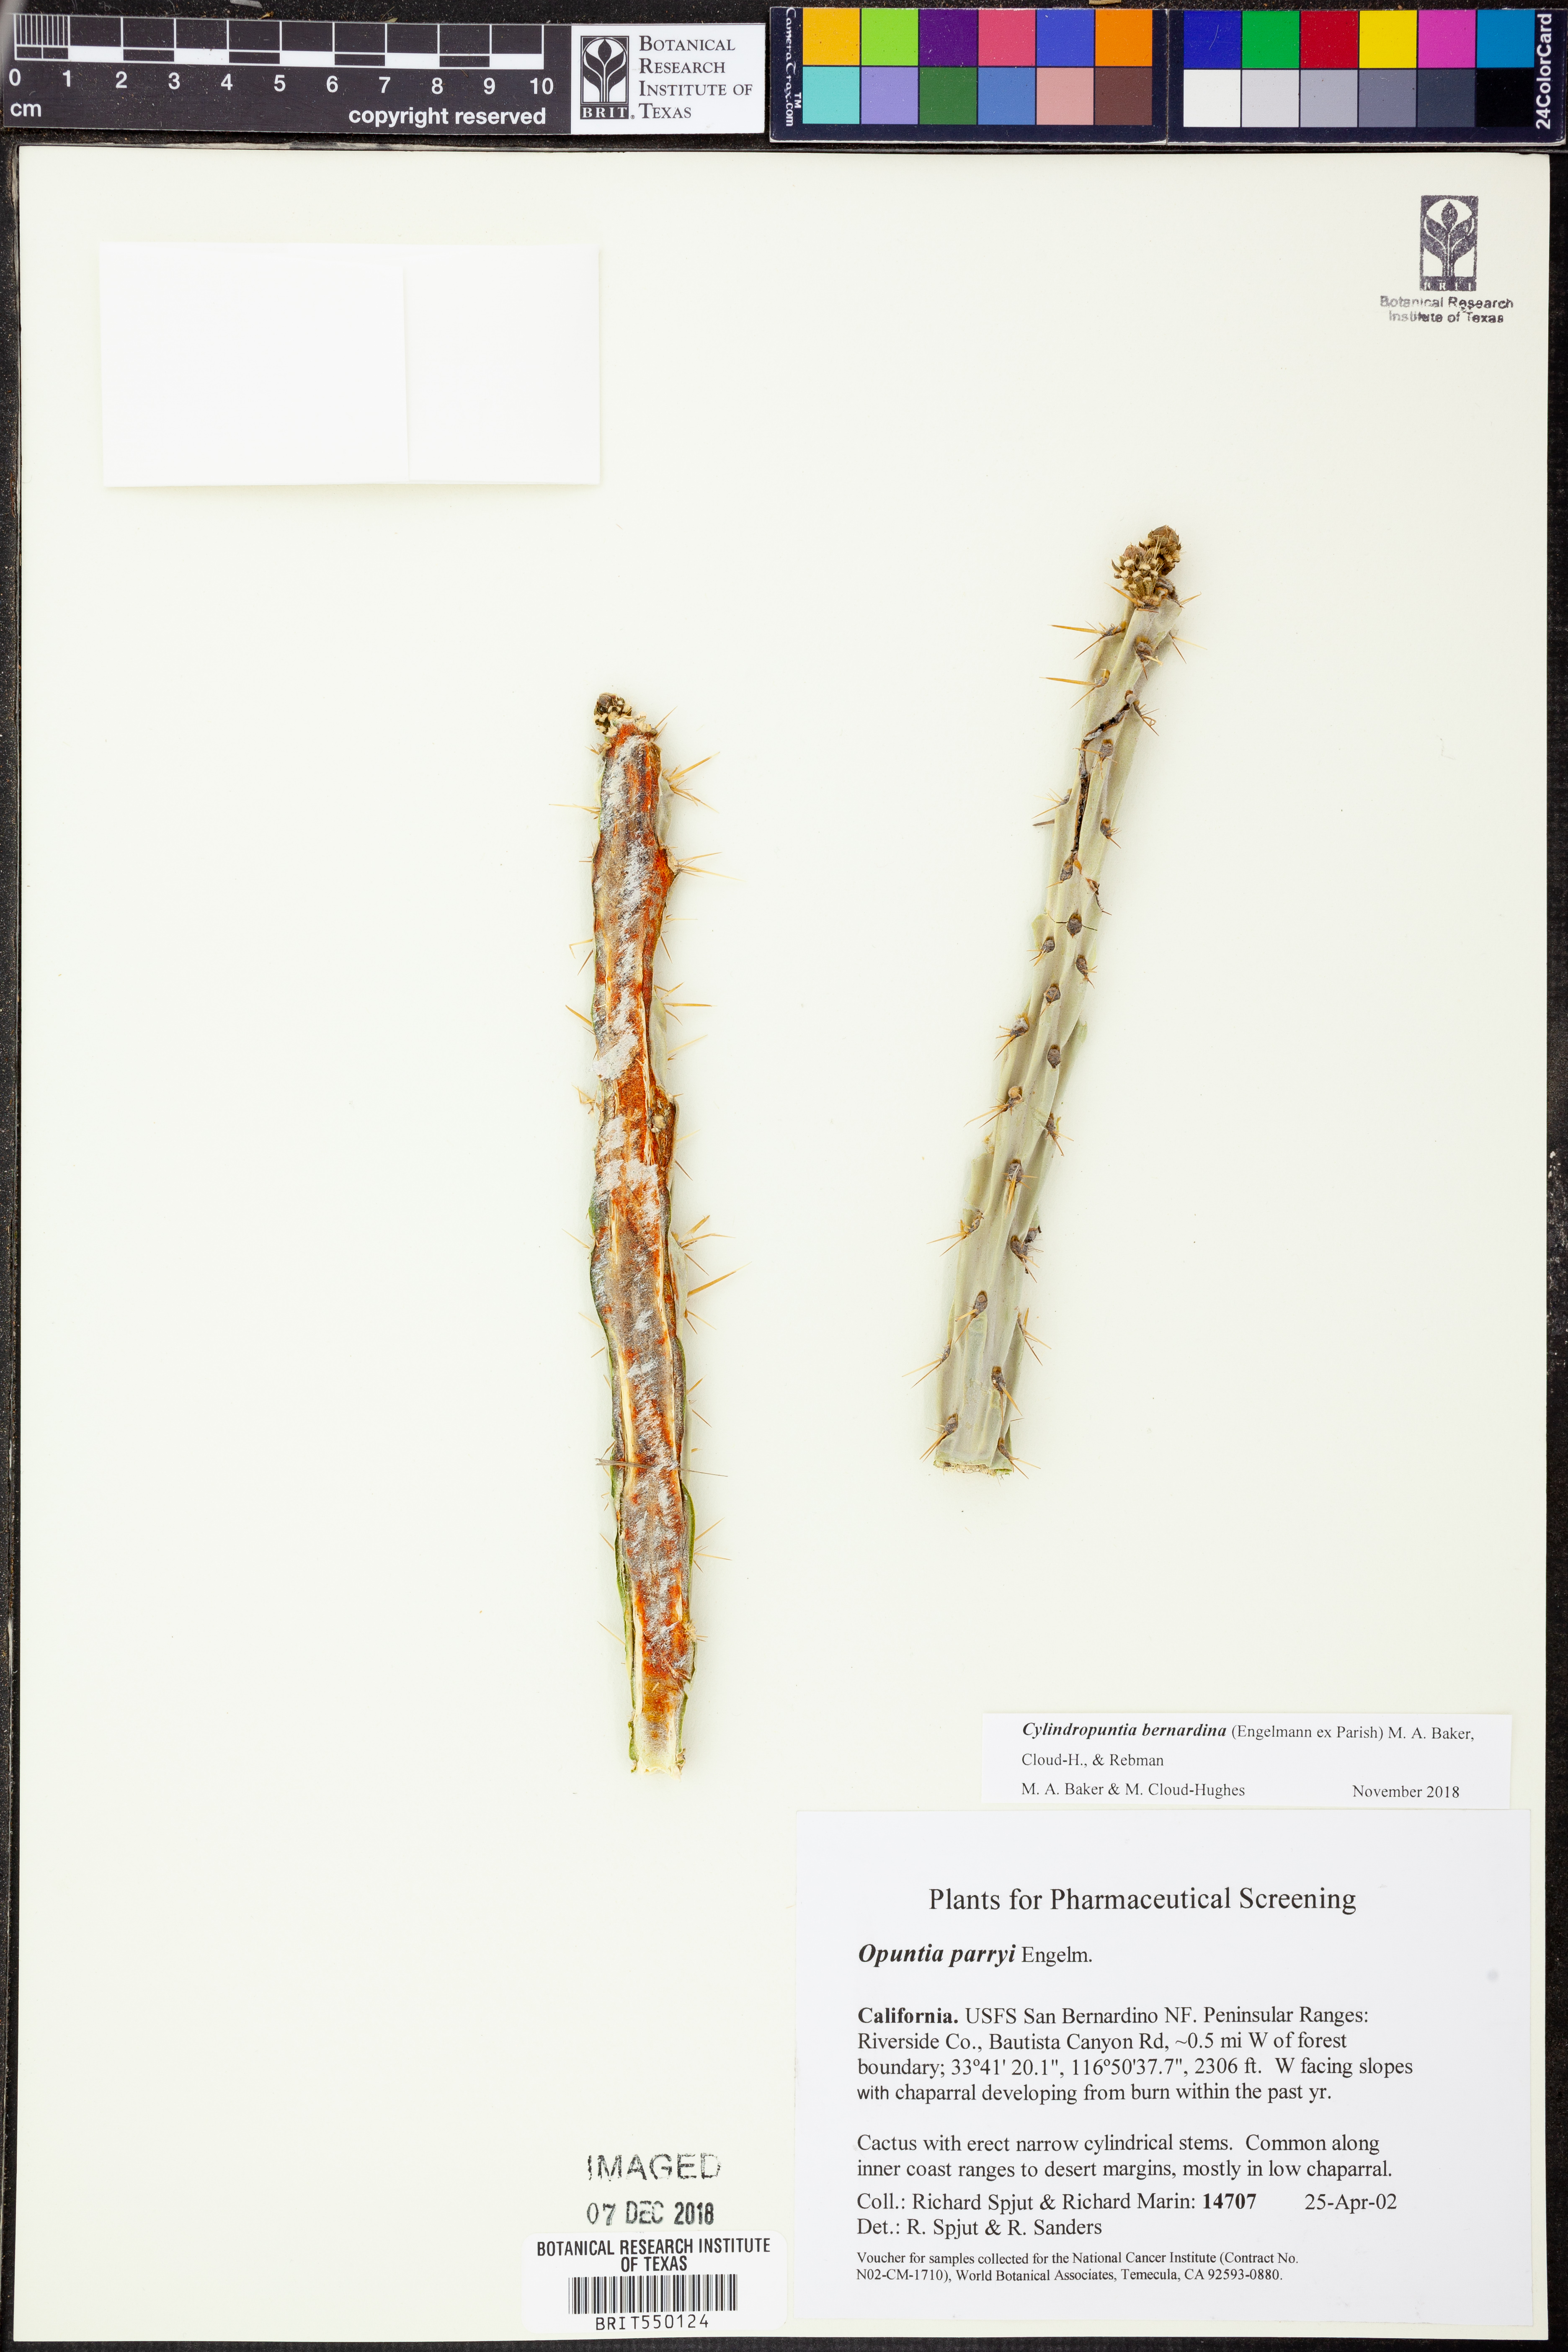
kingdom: Plantae
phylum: Tracheophyta
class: Magnoliopsida
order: Caryophyllales
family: Cactaceae
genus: Cylindropuntia
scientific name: Cylindropuntia bernardina
